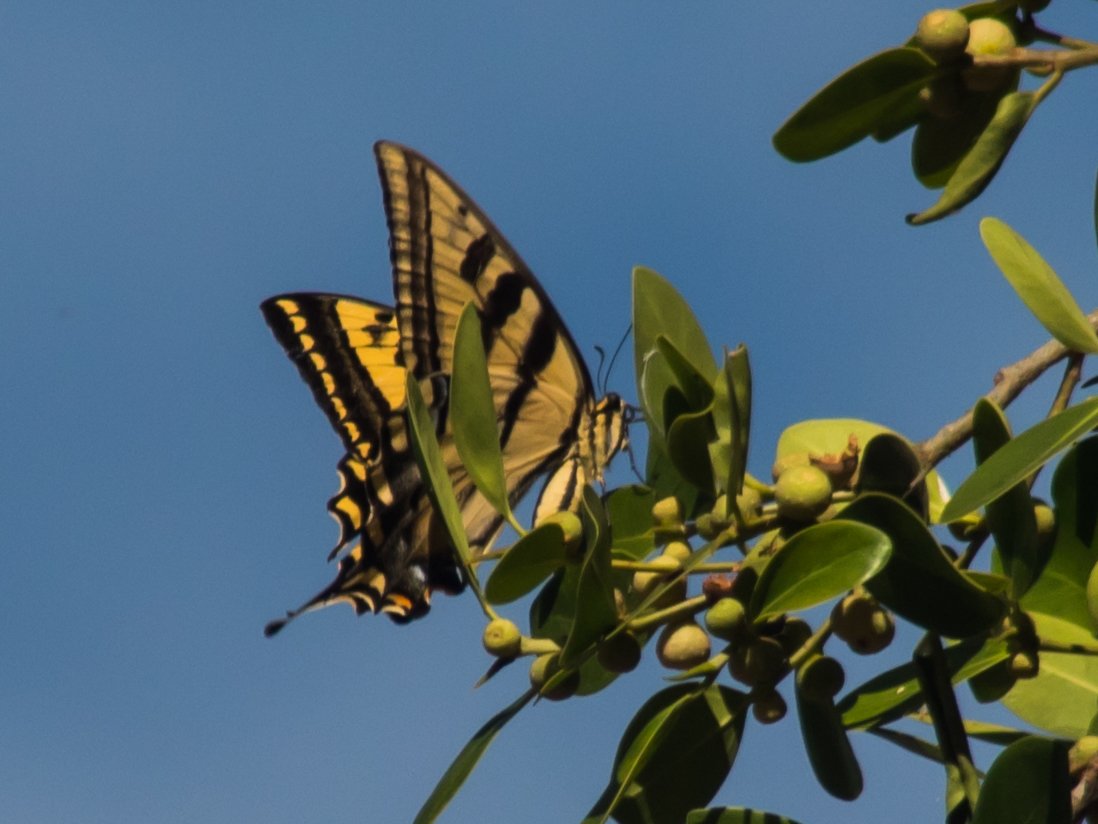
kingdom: Animalia
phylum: Arthropoda
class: Insecta
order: Lepidoptera
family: Papilionidae
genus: Pterourus
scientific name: Pterourus rutulus
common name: Western Tiger Swallowtail
